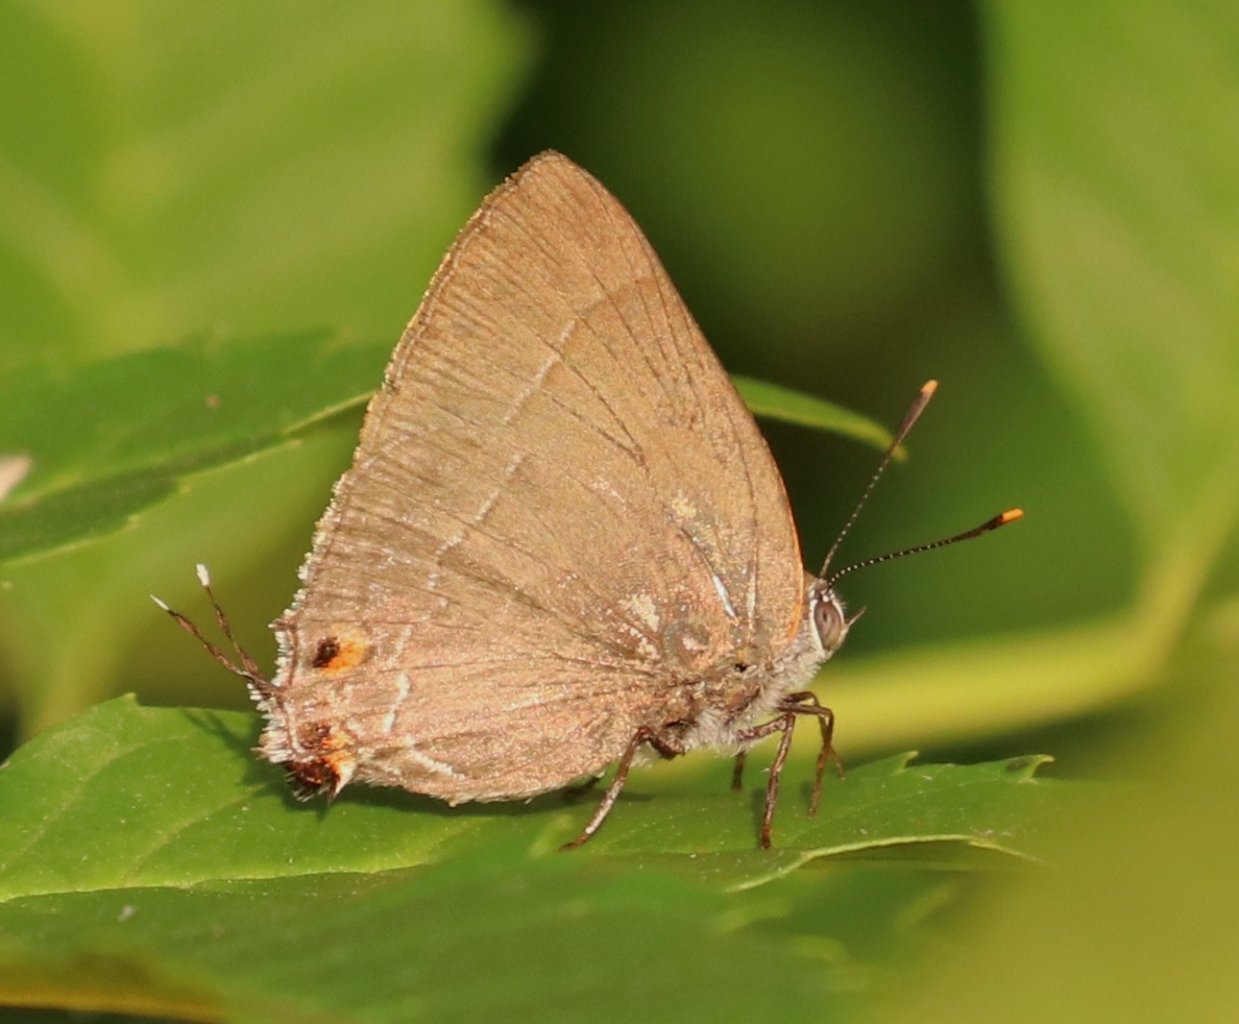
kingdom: Animalia
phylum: Arthropoda
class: Insecta
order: Lepidoptera
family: Lycaenidae
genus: Thecla
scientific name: Thecla marius
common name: Marius Hairstreak
